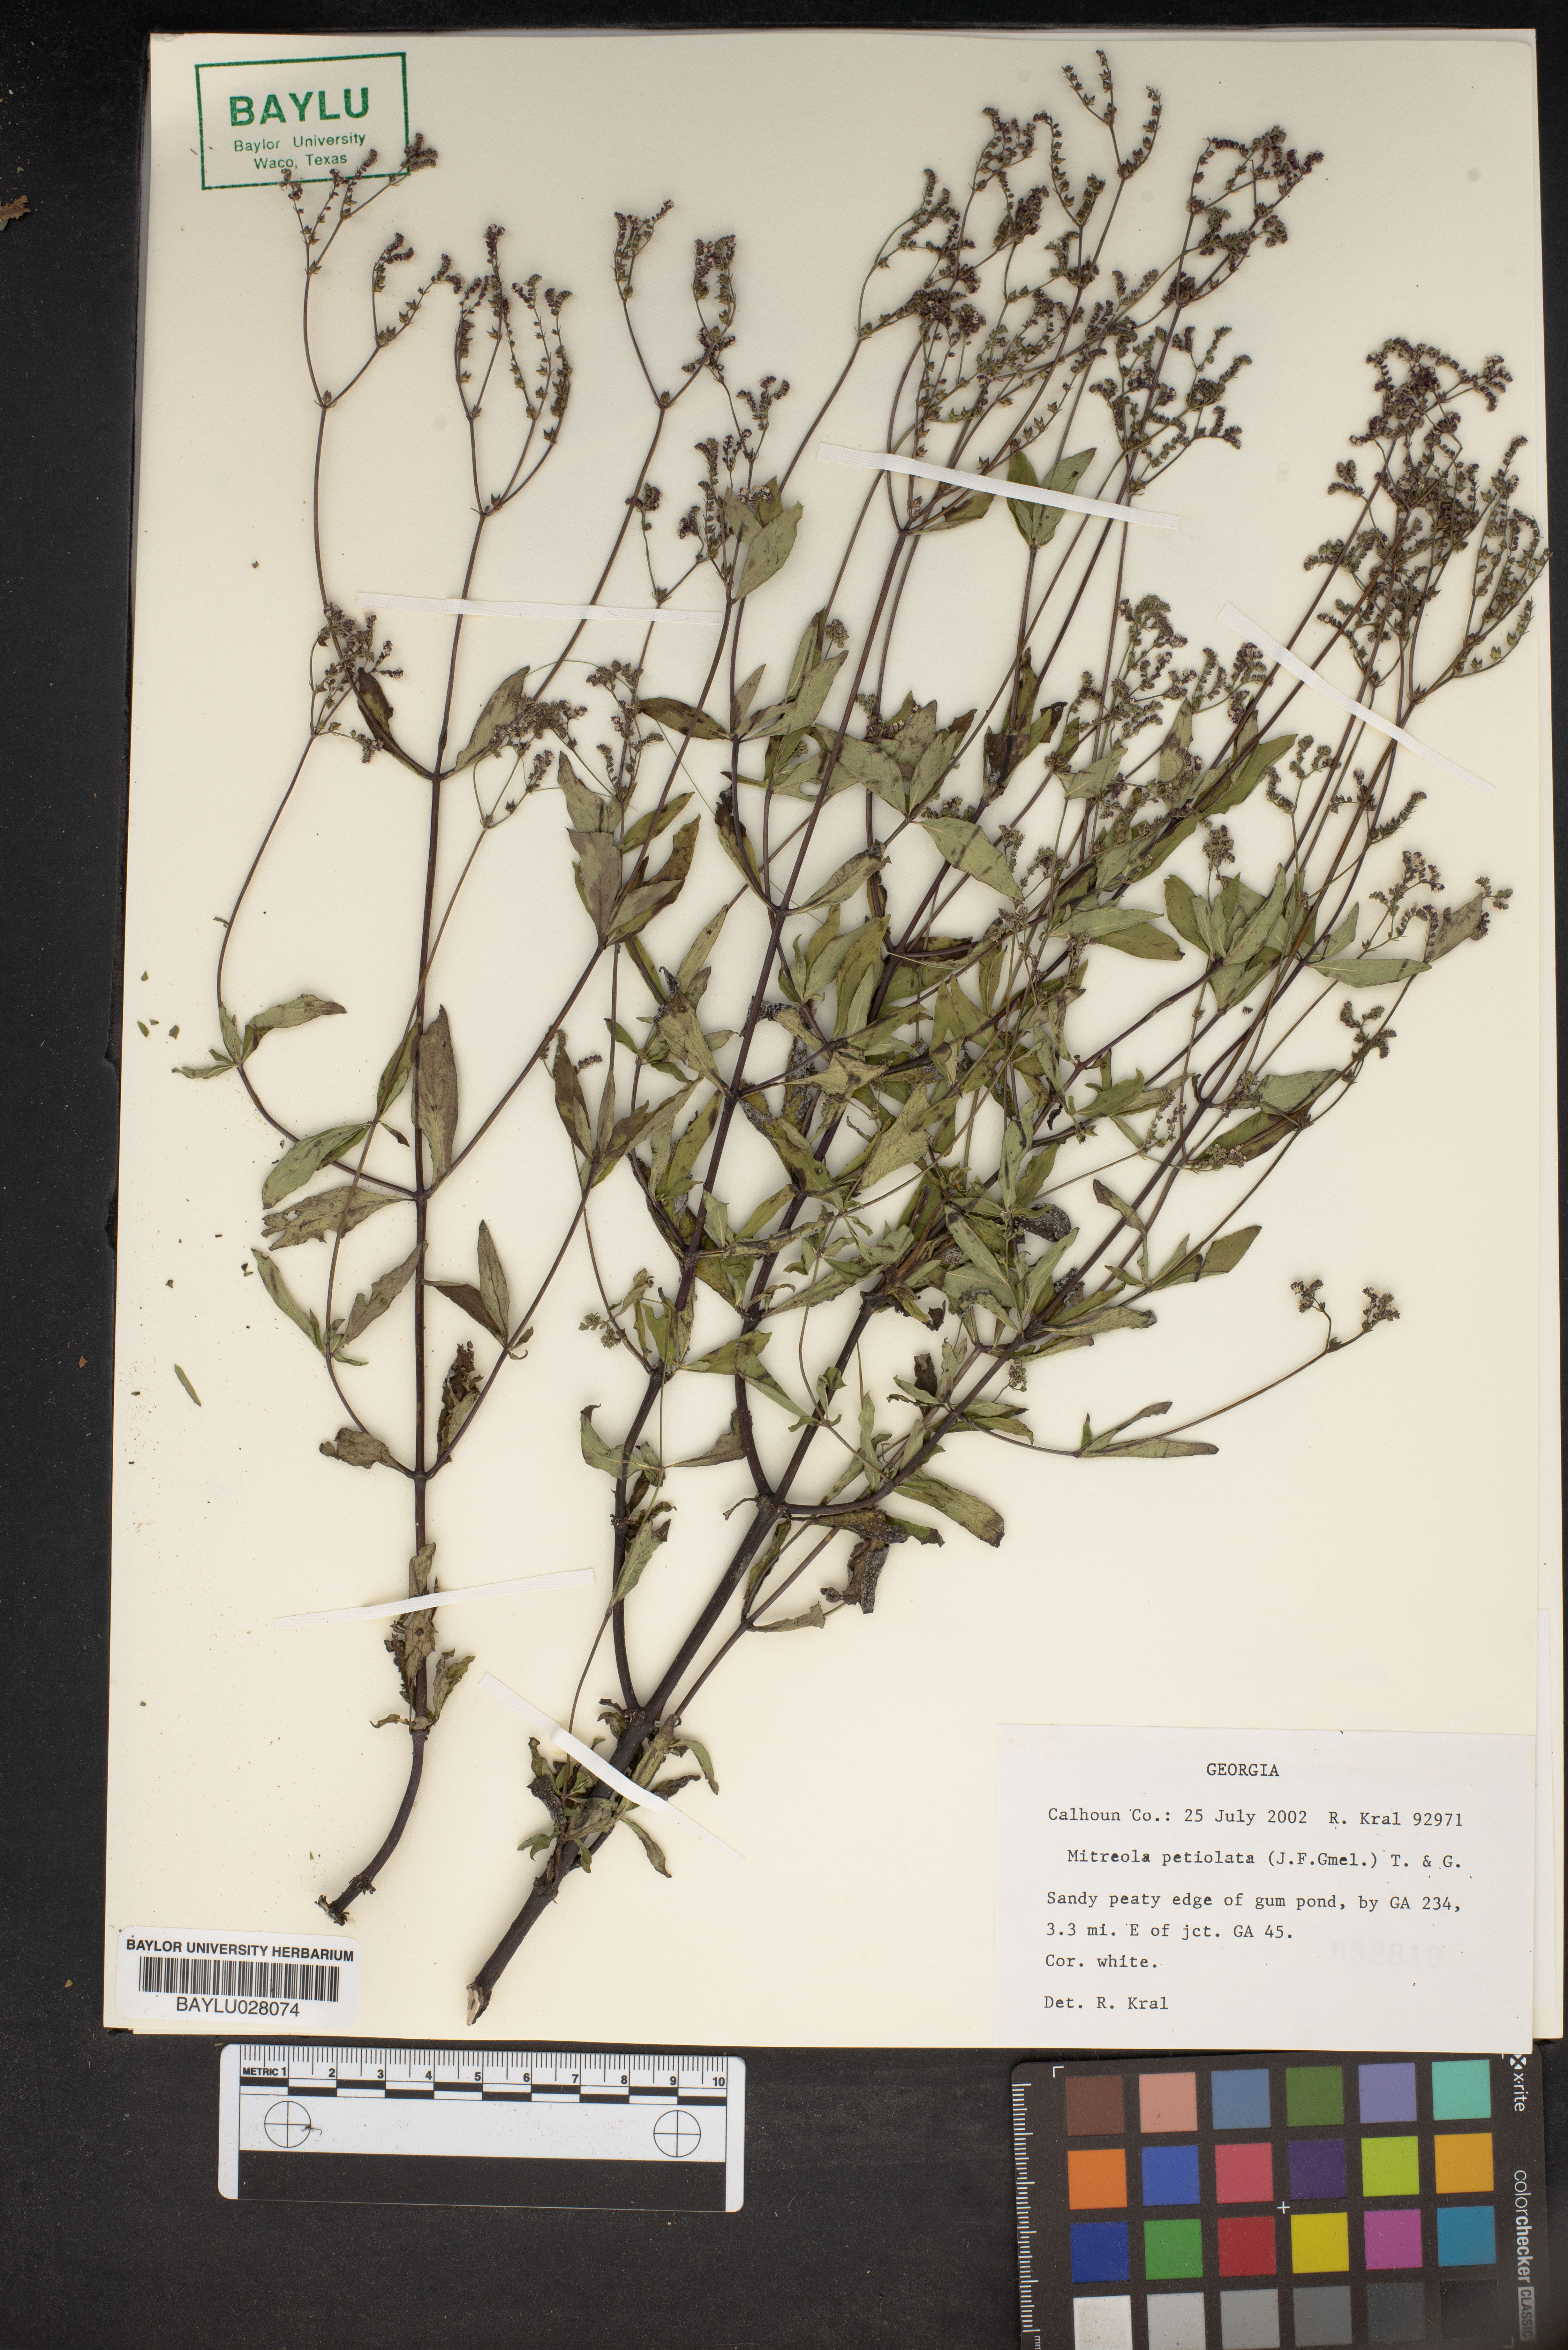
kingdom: Plantae
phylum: Tracheophyta
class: Magnoliopsida
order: Gentianales
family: Loganiaceae
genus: Mitreola
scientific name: Mitreola petiolata
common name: Lax hornpod
